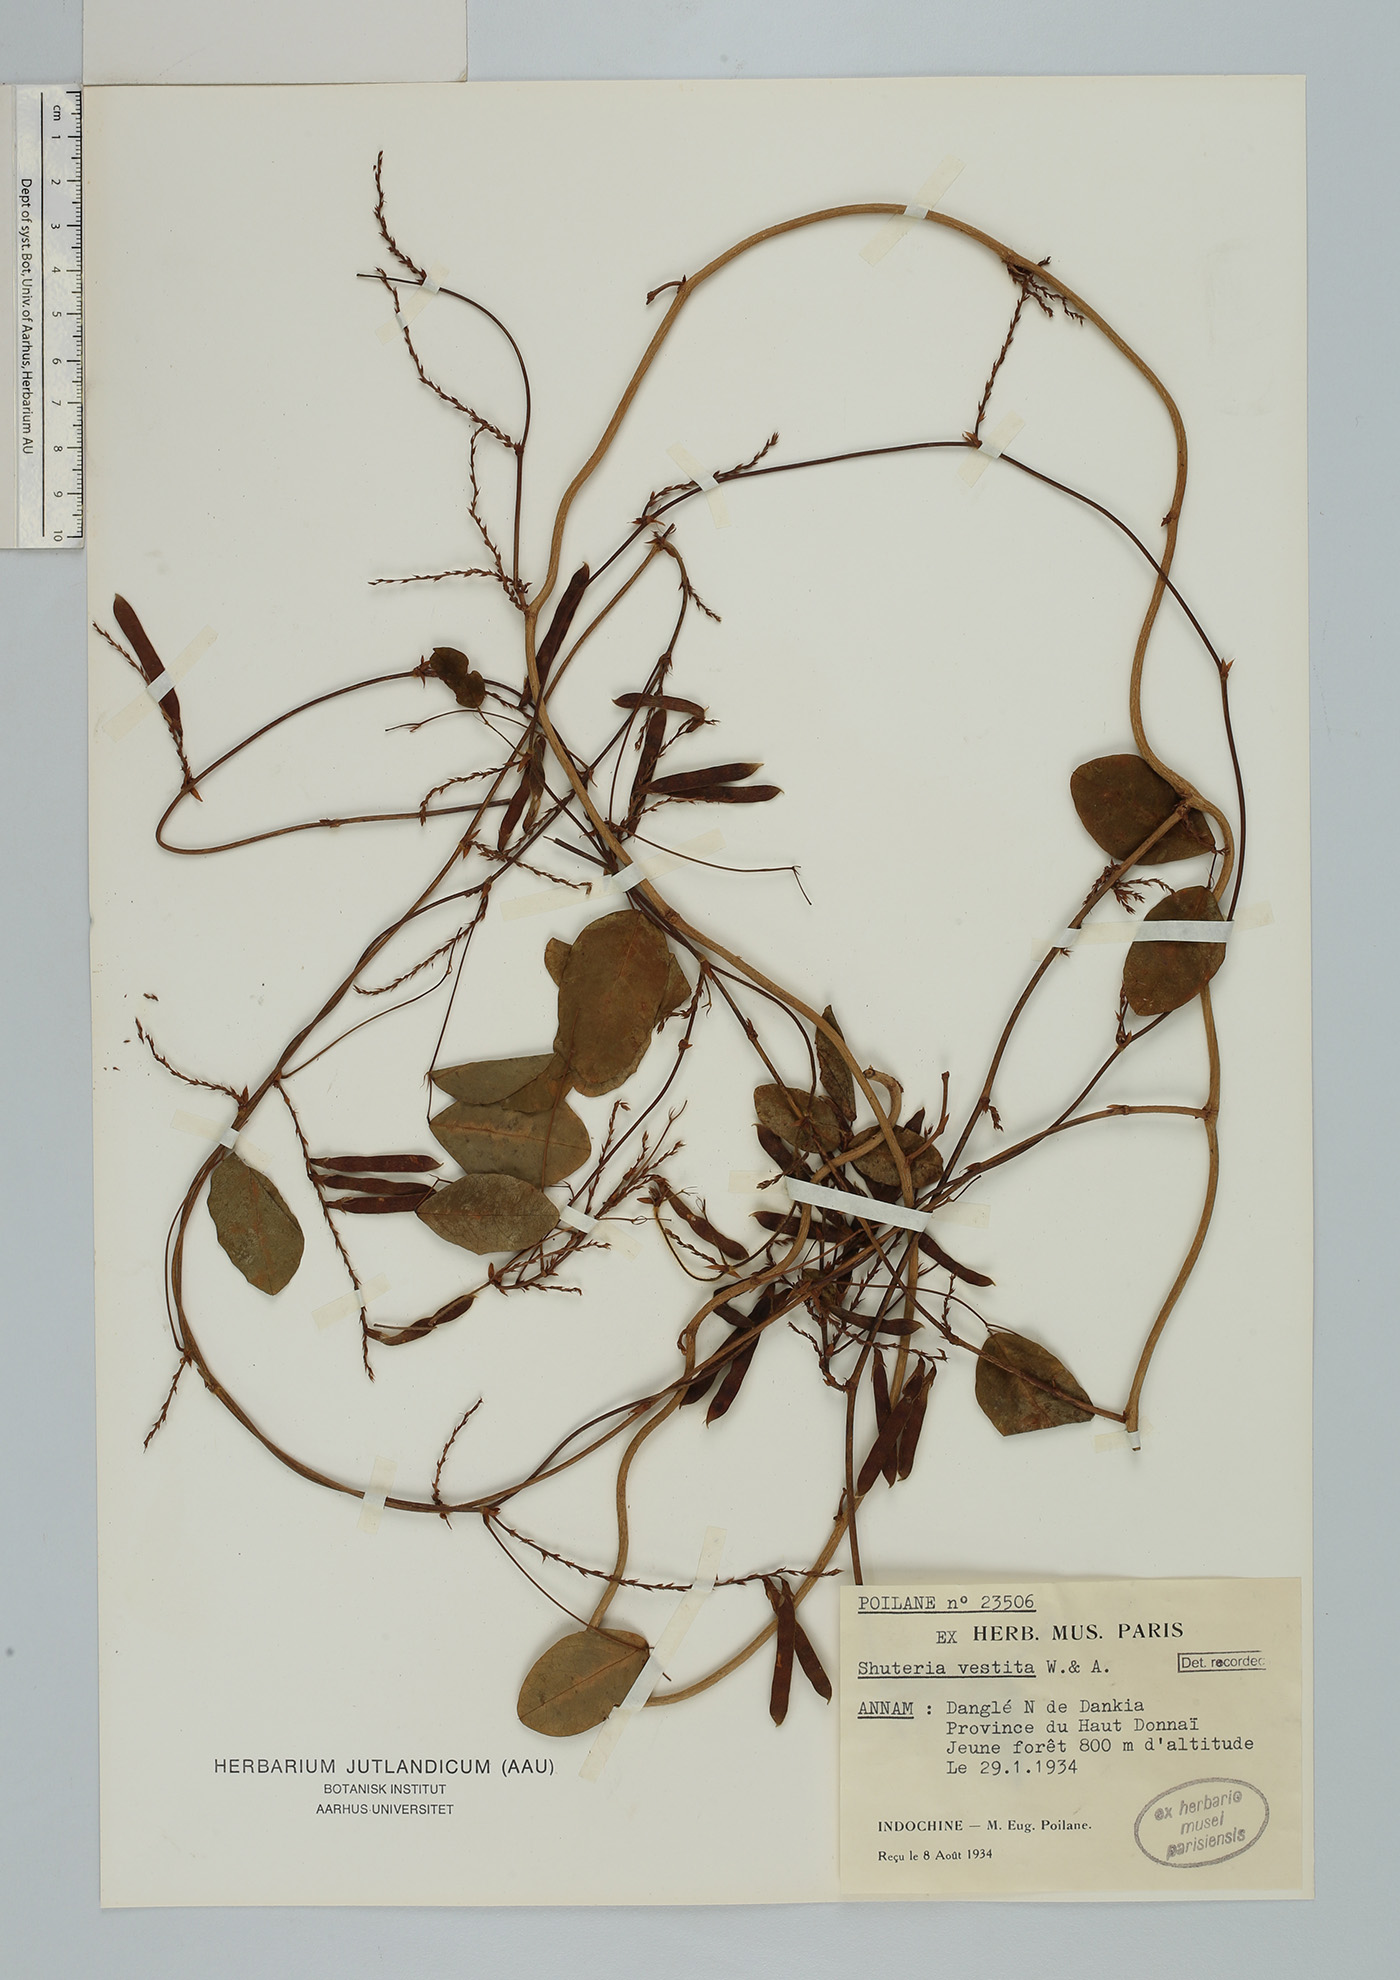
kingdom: Plantae
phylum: Tracheophyta
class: Magnoliopsida
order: Fabales
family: Fabaceae
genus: Shuteria
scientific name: Shuteria vestita
